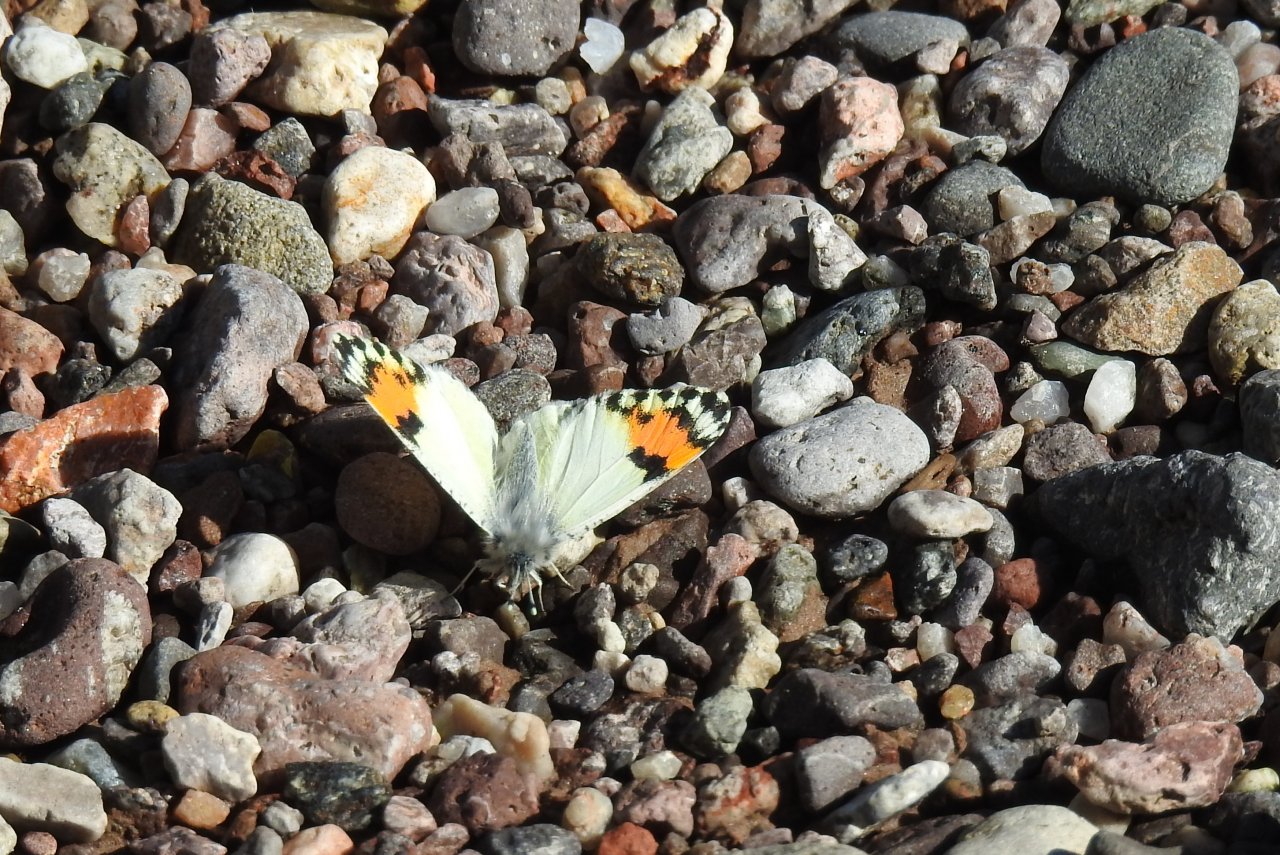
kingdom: Animalia
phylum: Arthropoda
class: Insecta
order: Lepidoptera
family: Pieridae
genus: Anthocharis
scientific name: Anthocharis cethura
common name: Desert Orangetip
